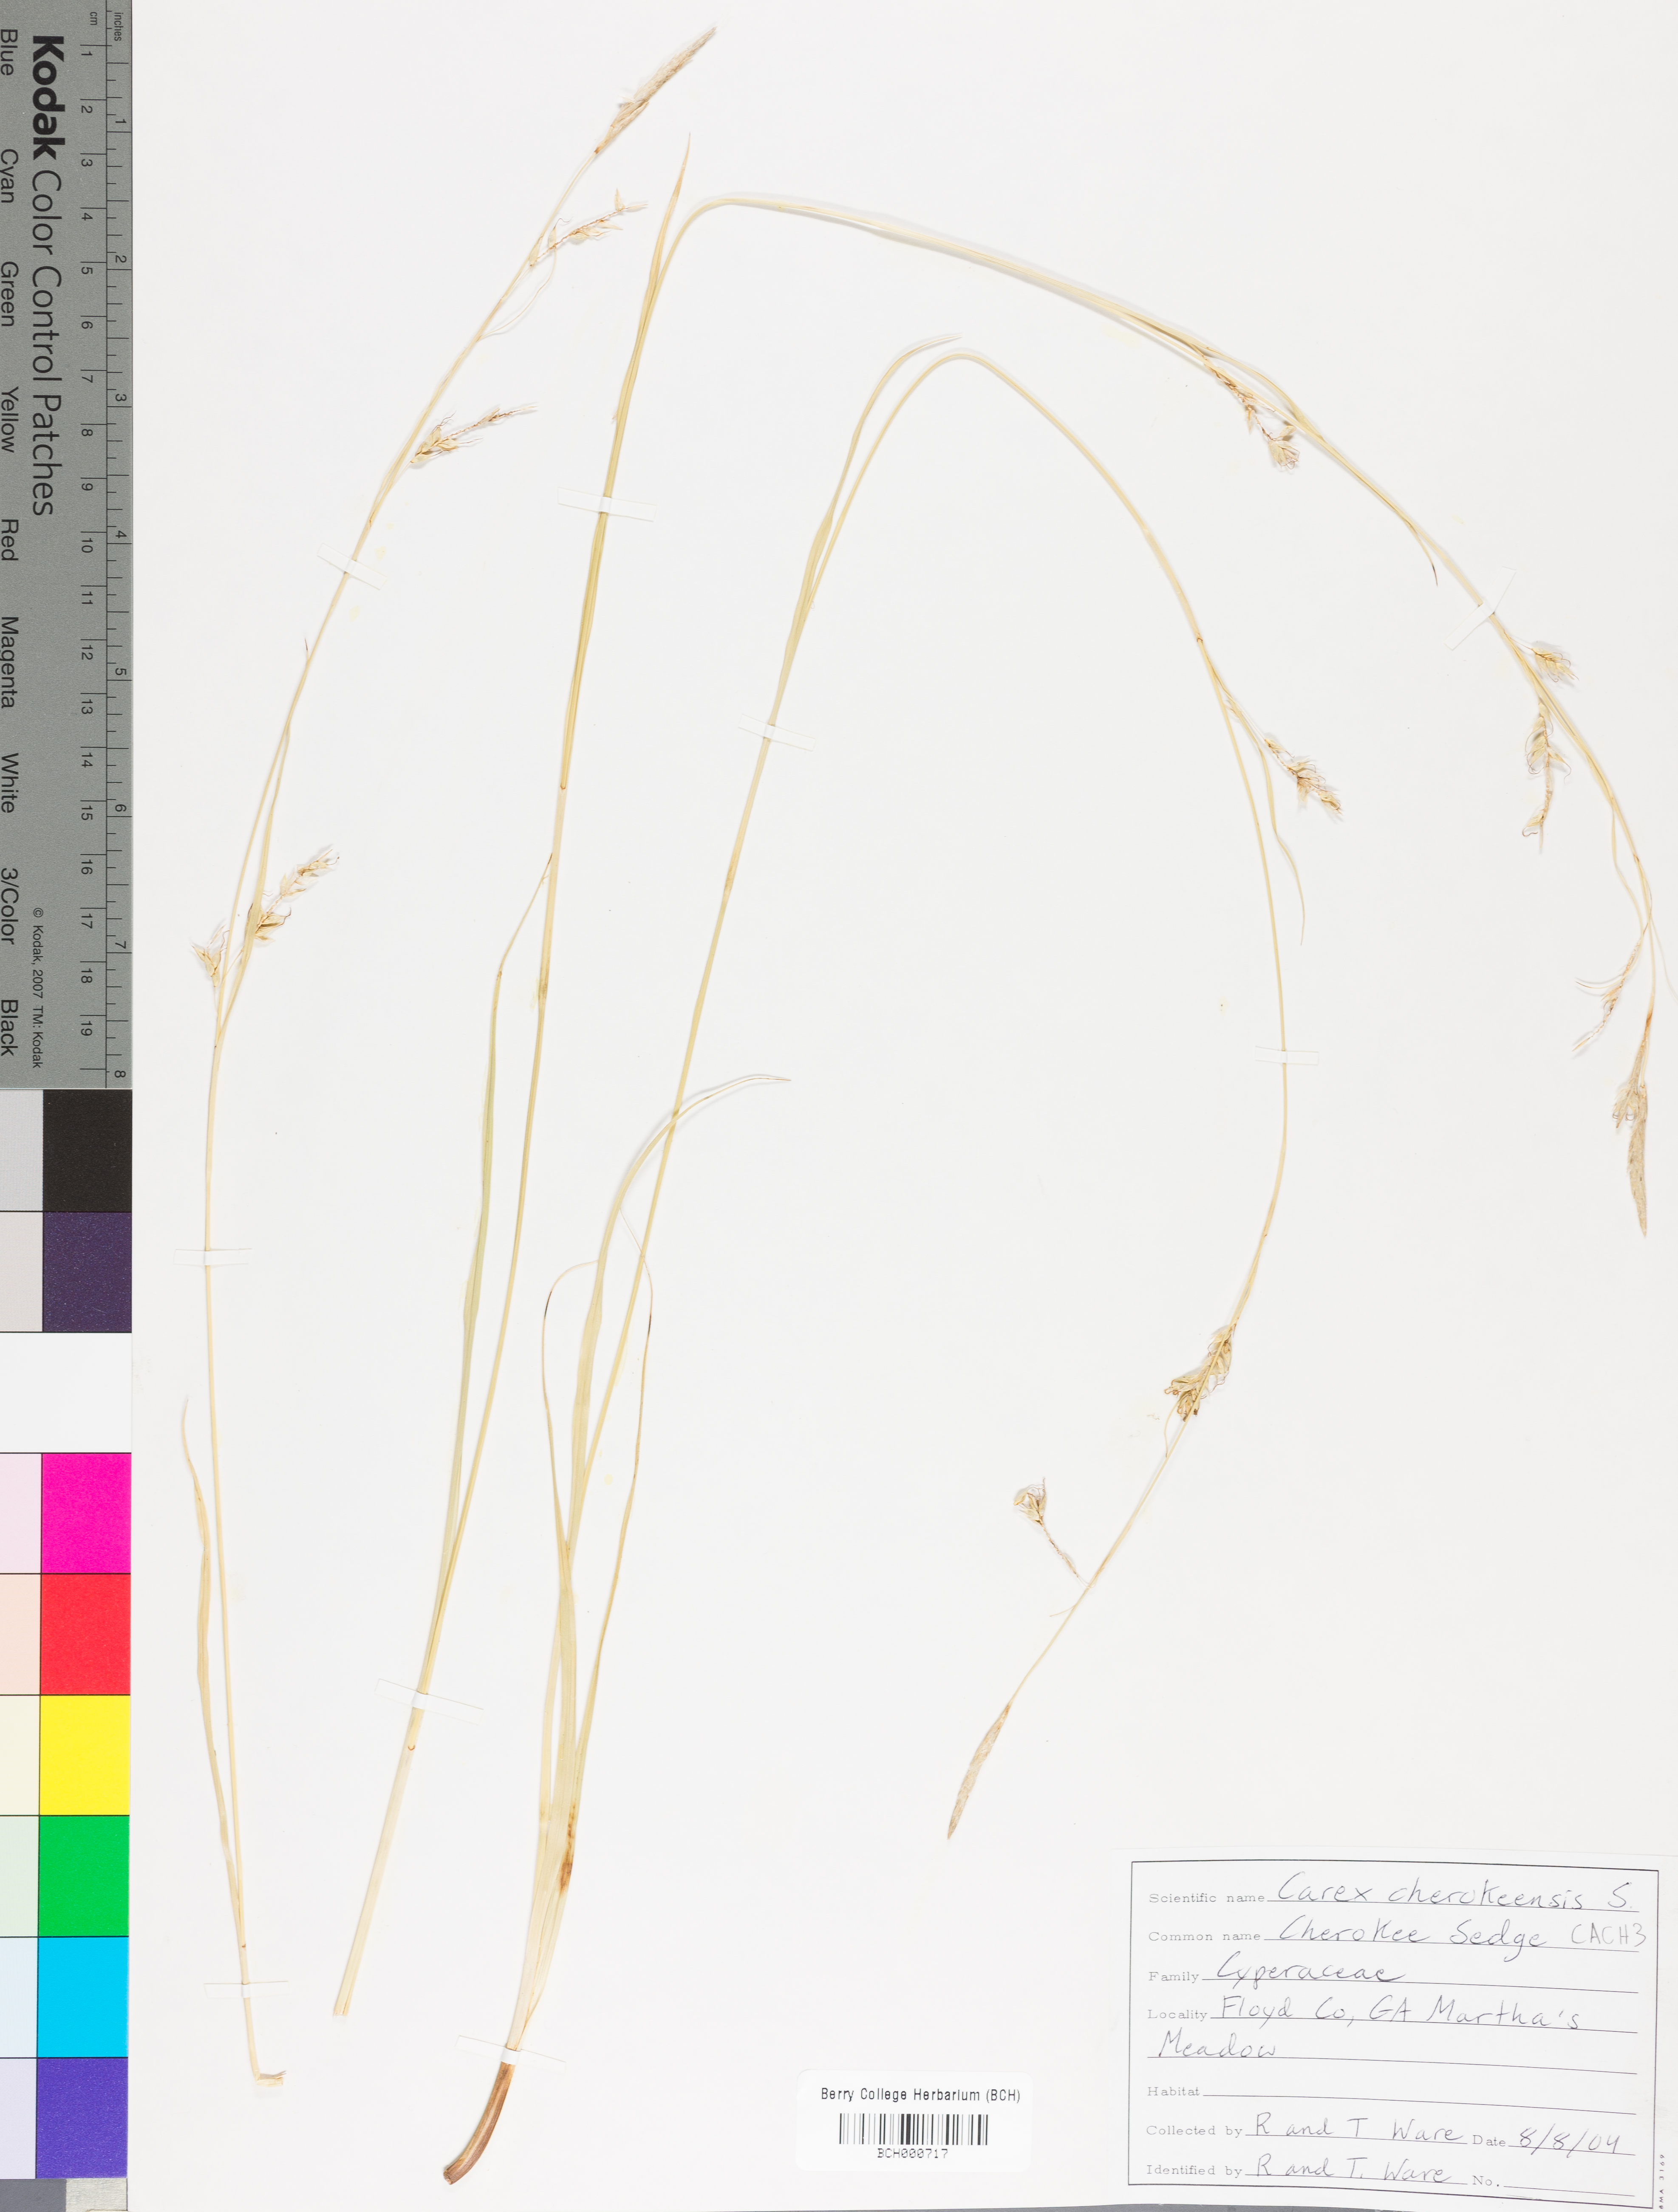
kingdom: Plantae
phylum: Tracheophyta
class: Liliopsida
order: Poales
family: Cyperaceae
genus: Carex
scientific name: Carex cherokeensis
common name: Cherokee sedge
